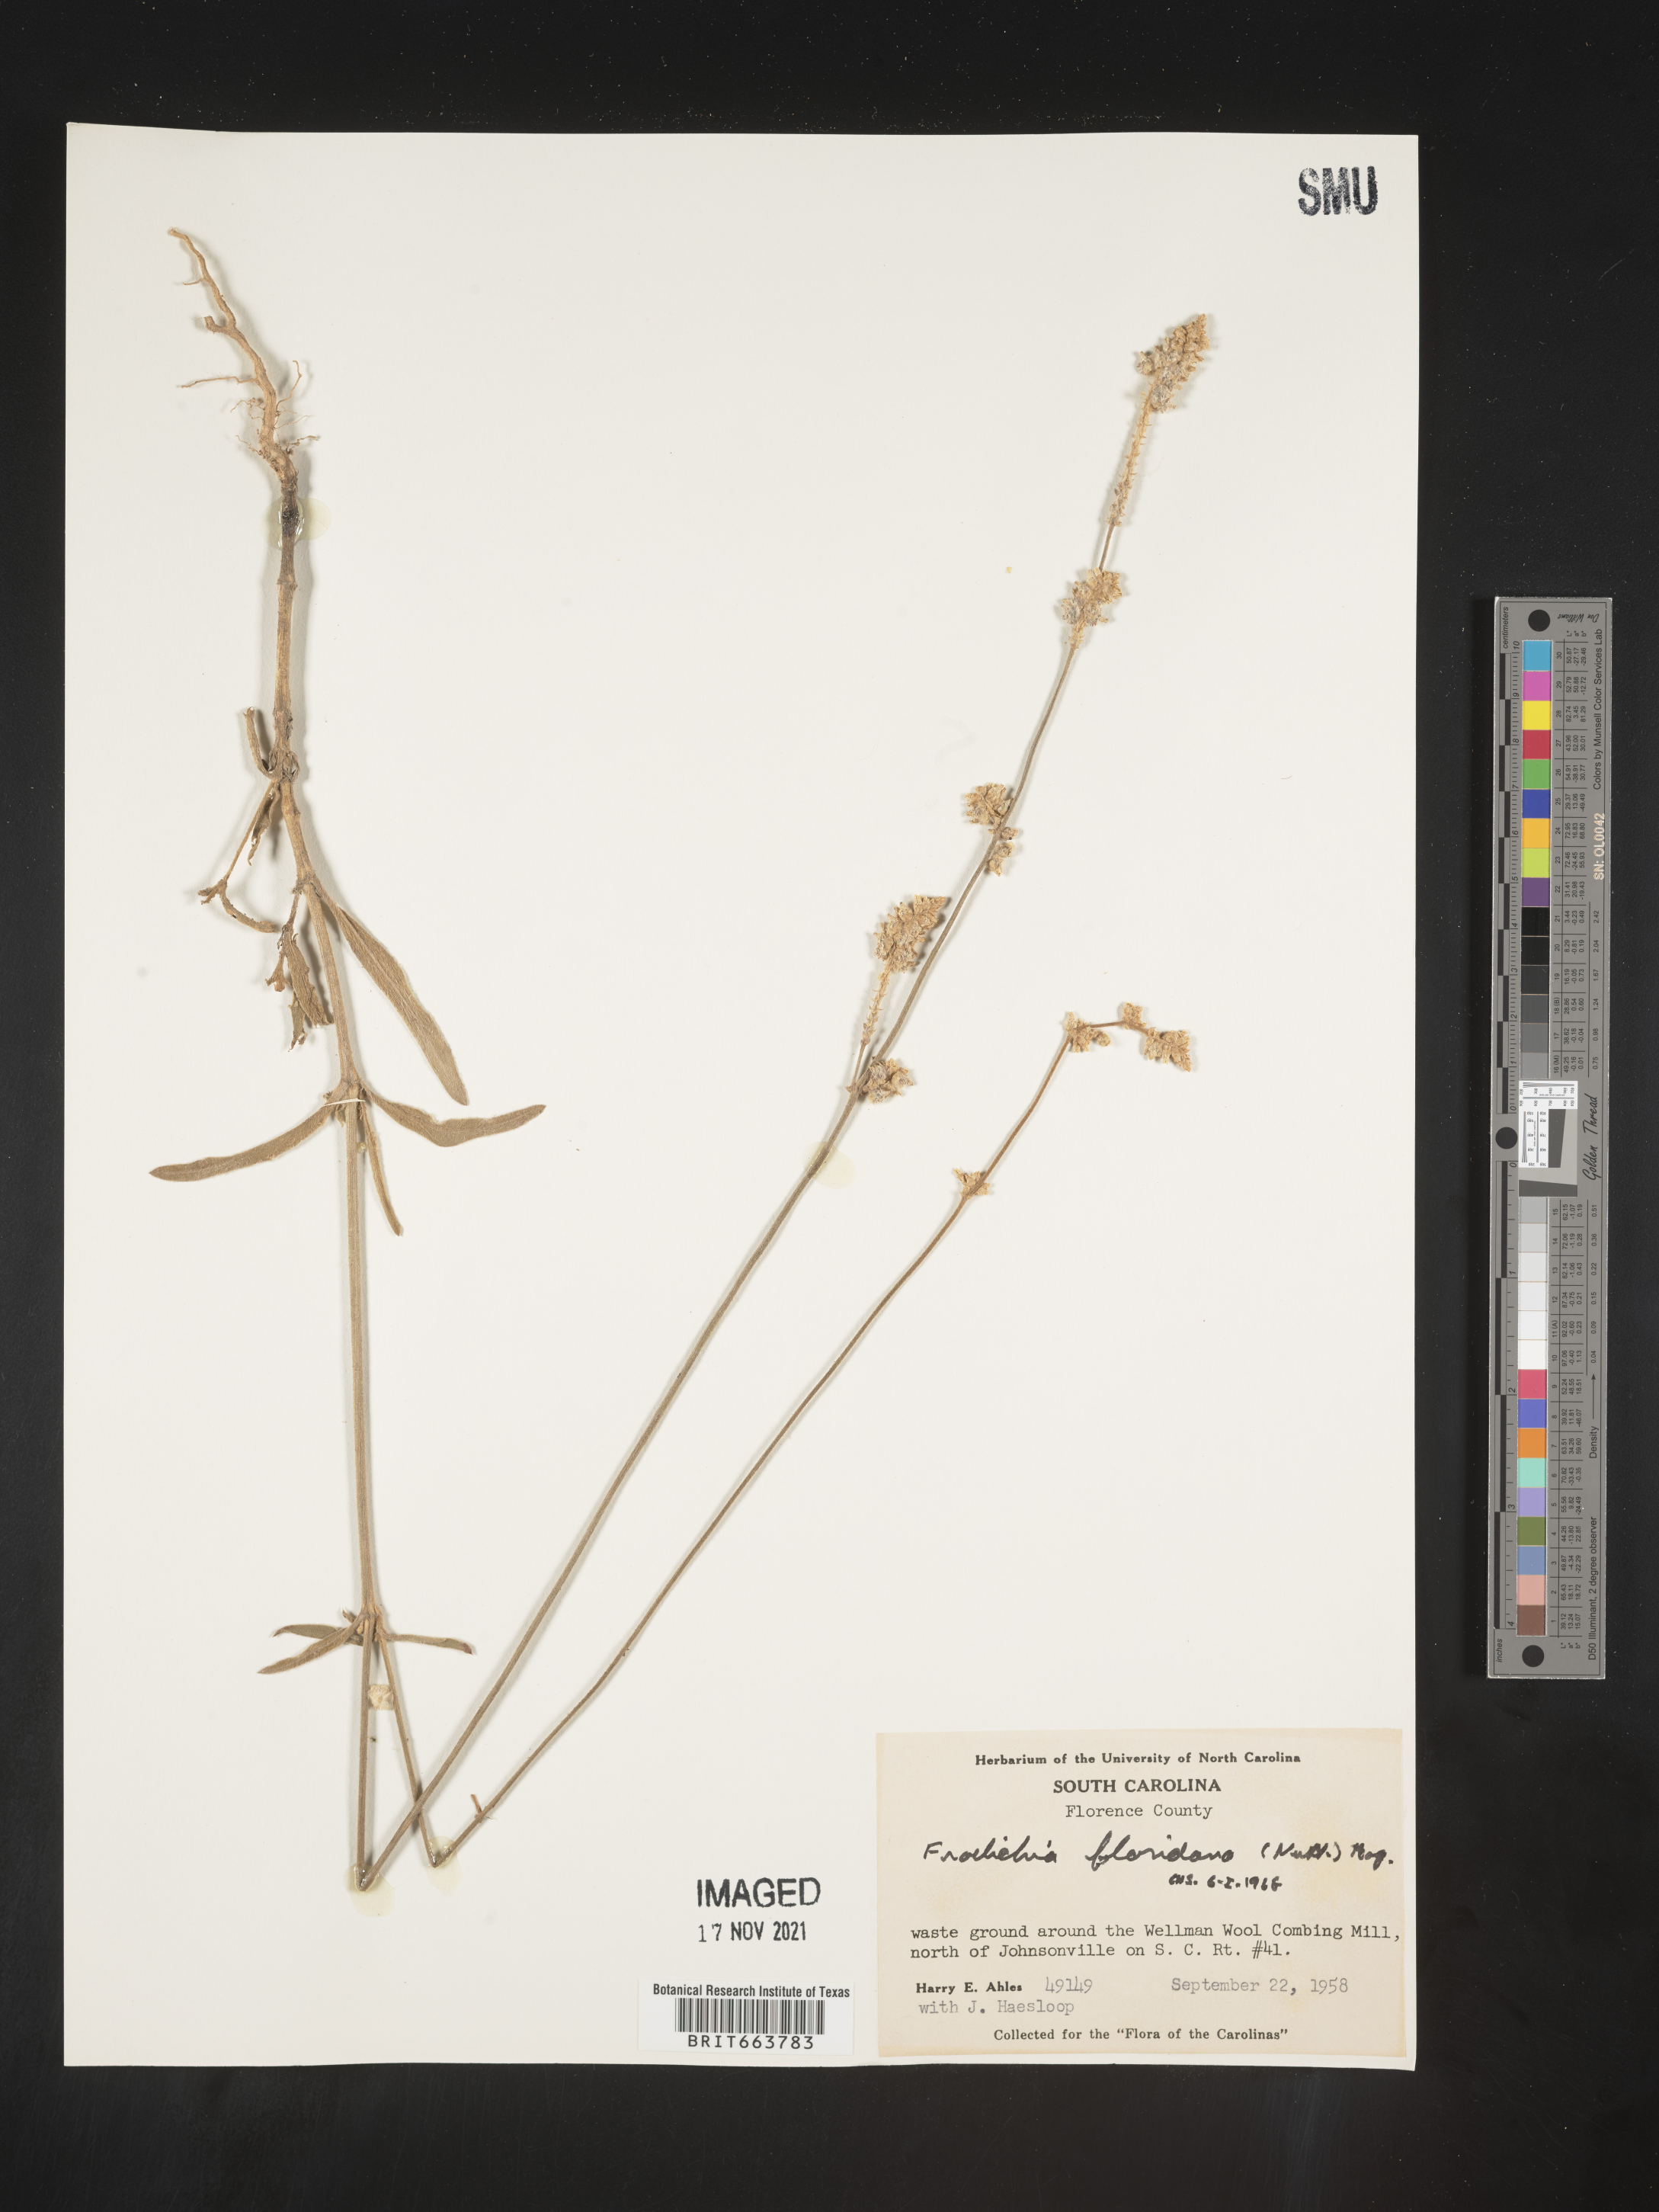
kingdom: Plantae
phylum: Tracheophyta
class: Magnoliopsida
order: Caryophyllales
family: Amaranthaceae
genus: Froelichia
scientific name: Froelichia floridana
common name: Florida snake-cotton
